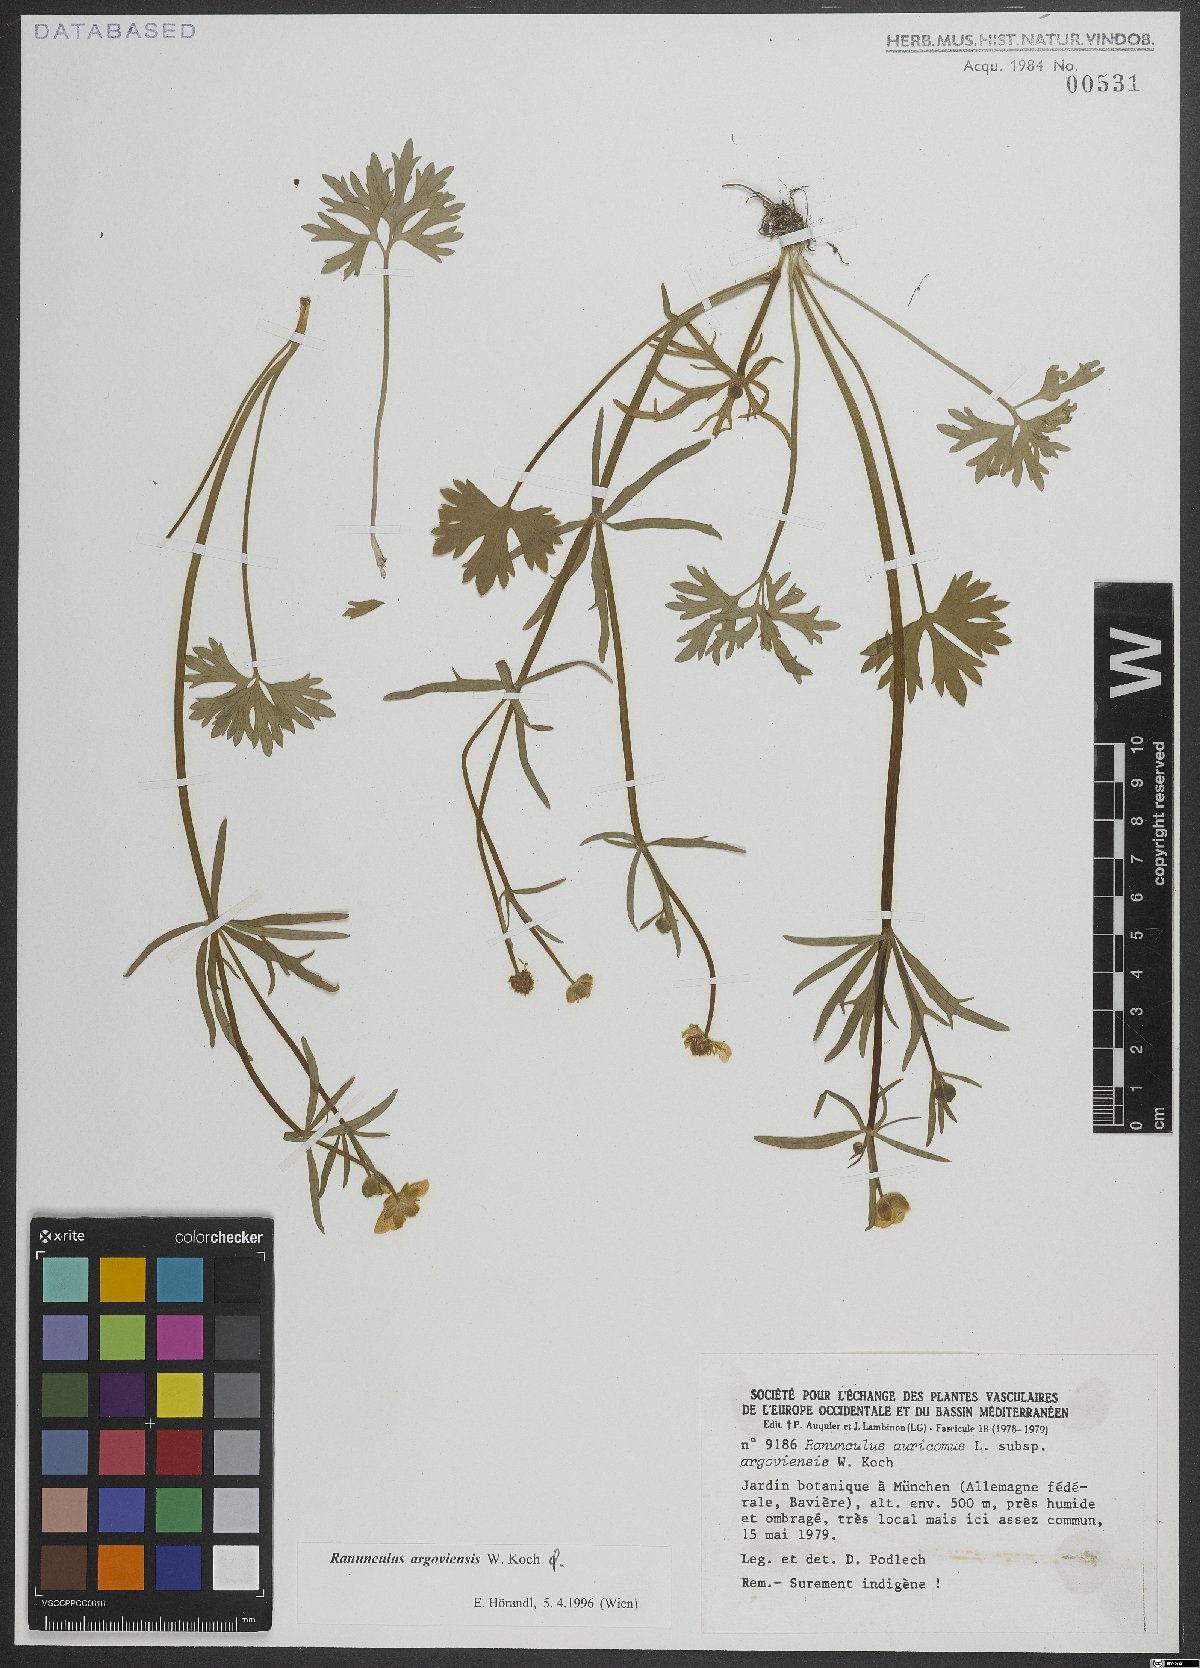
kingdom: Plantae
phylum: Tracheophyta
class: Magnoliopsida
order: Ranunculales
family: Ranunculaceae
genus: Ranunculus
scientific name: Ranunculus argoviensis
